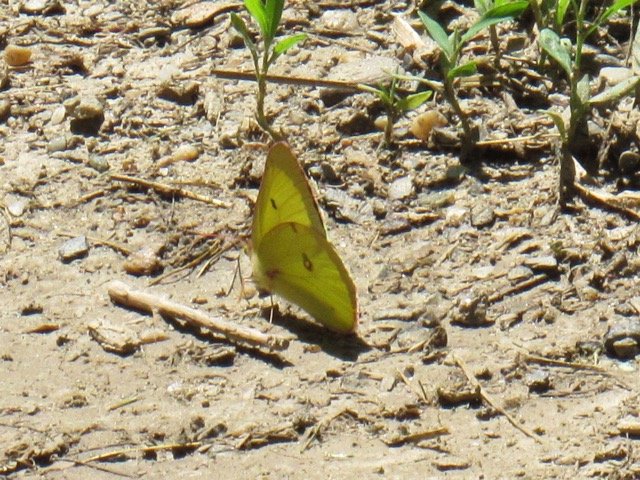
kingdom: Animalia
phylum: Arthropoda
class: Insecta
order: Lepidoptera
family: Pieridae
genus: Colias
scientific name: Colias philodice
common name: Clouded Sulphur
